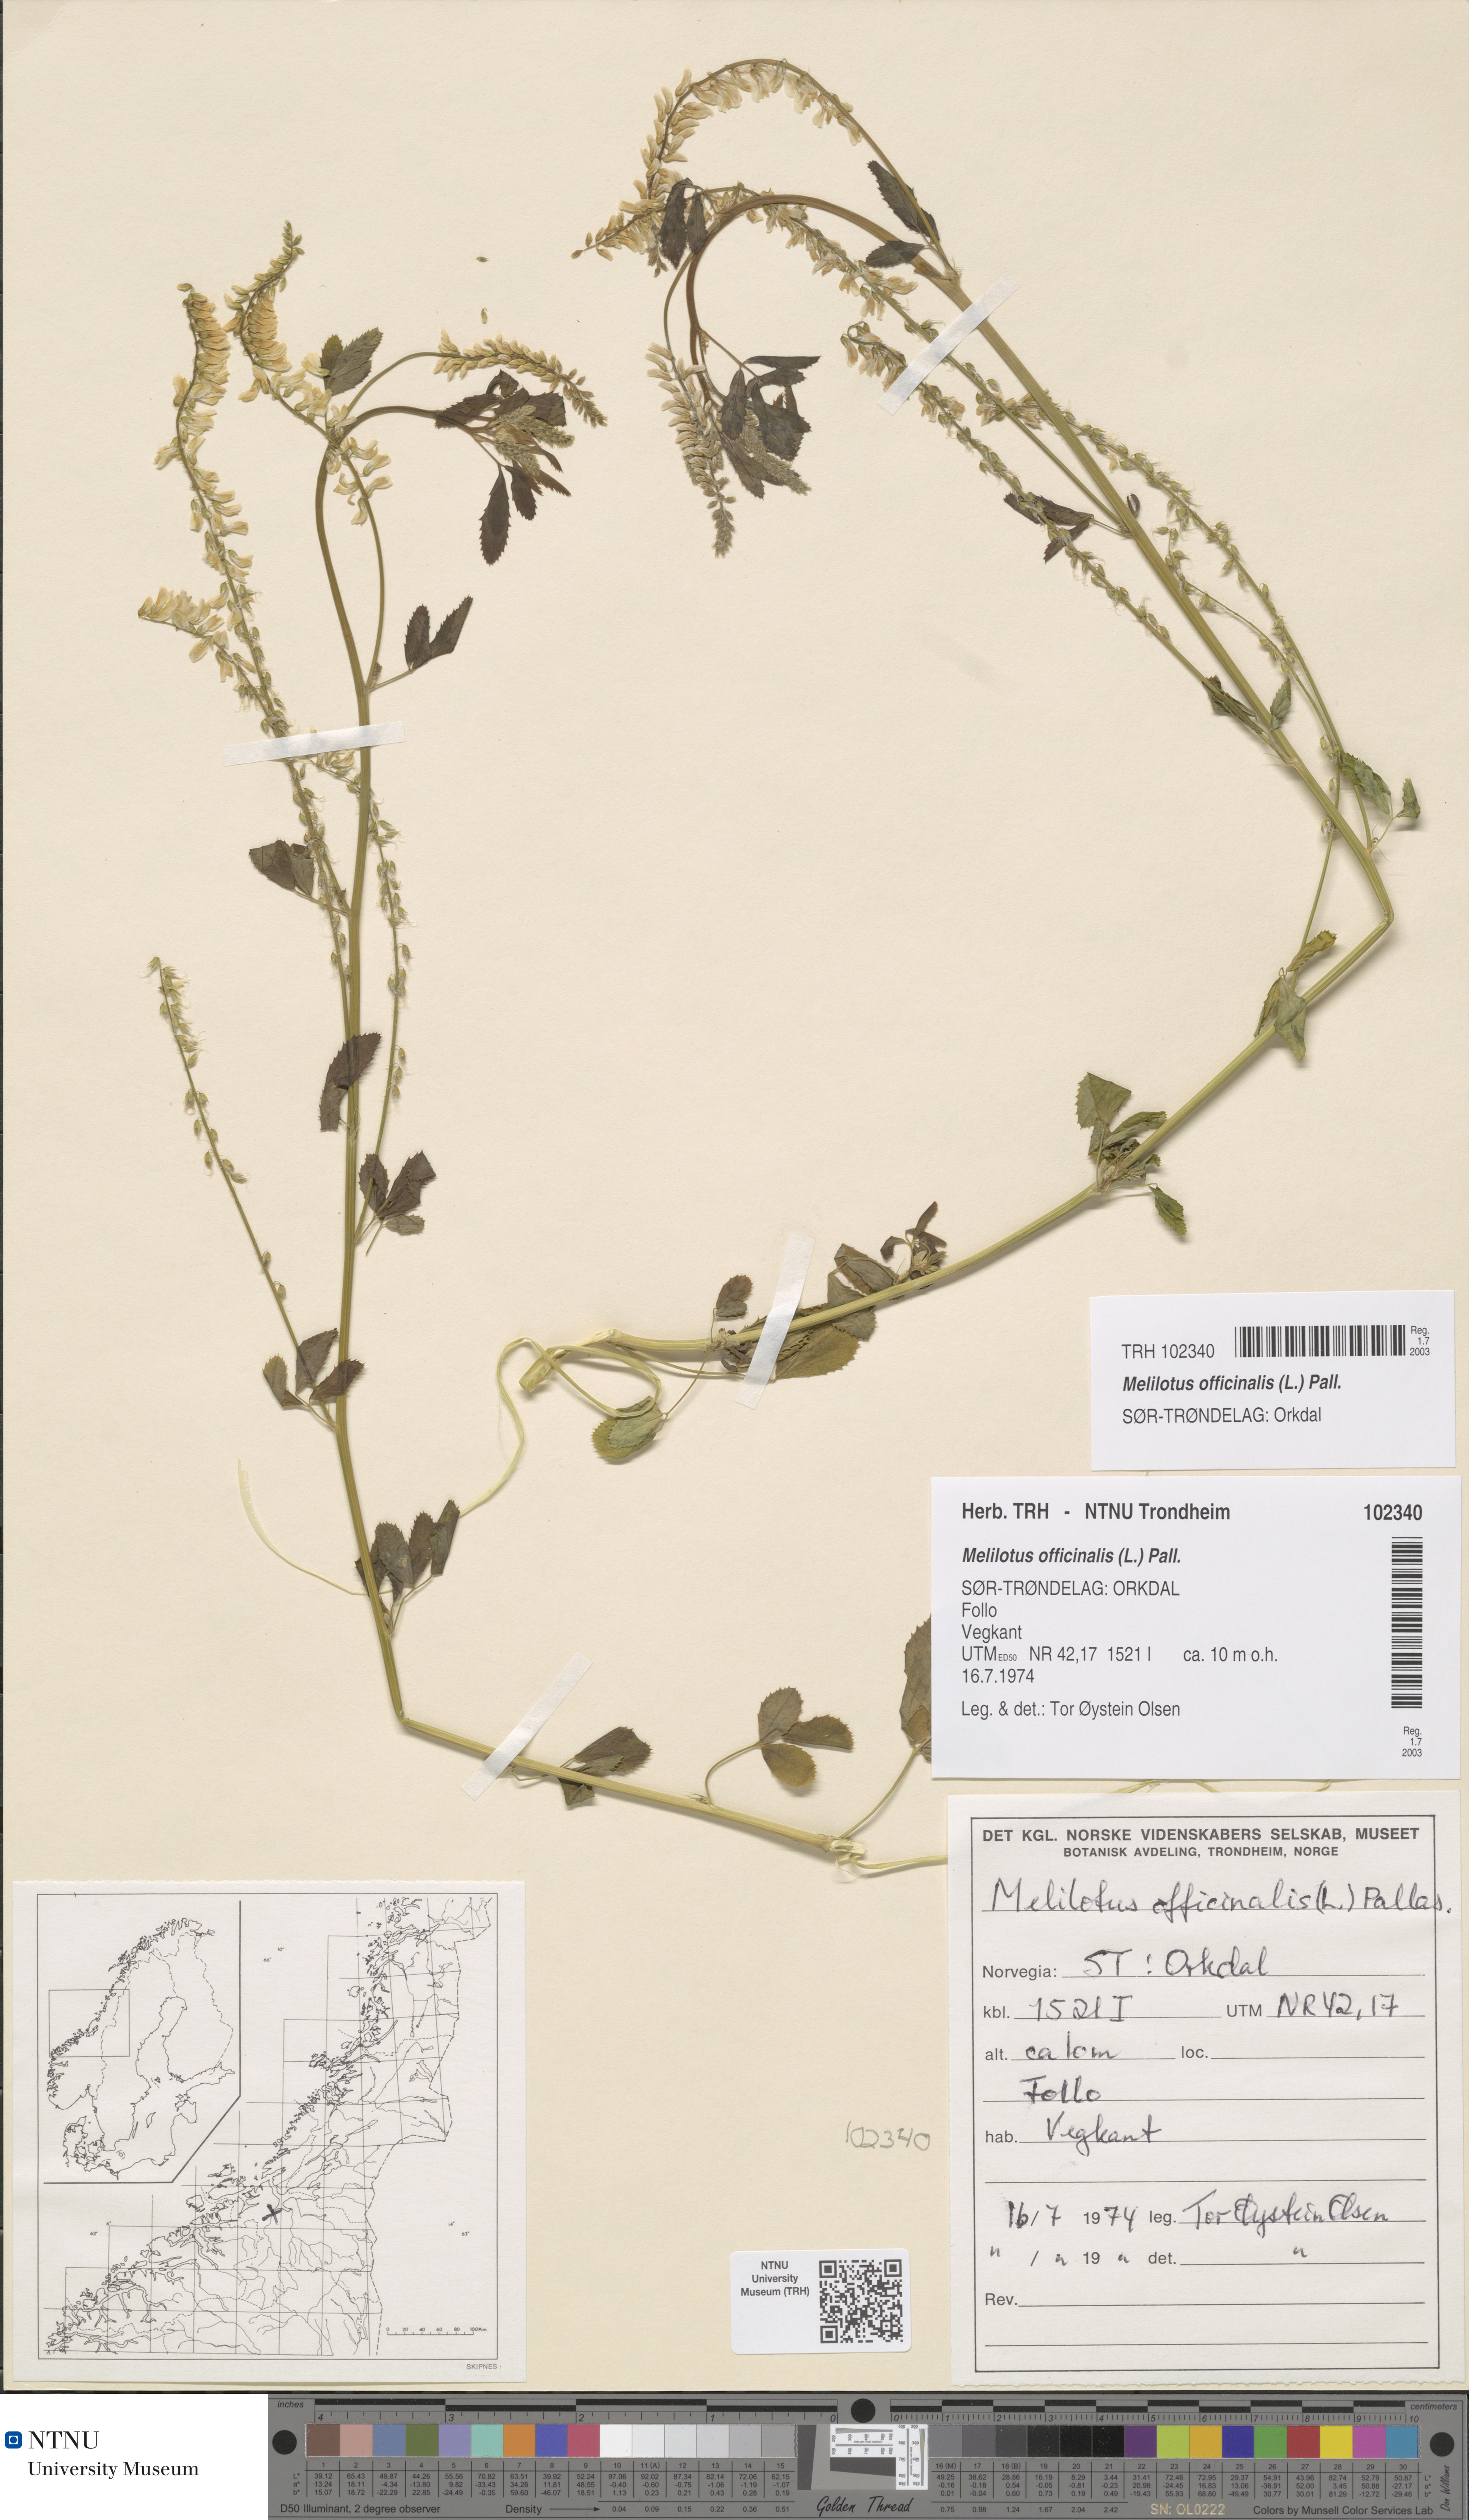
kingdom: Plantae
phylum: Tracheophyta
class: Magnoliopsida
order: Fabales
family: Fabaceae
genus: Melilotus
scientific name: Melilotus officinalis
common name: Sweetclover
